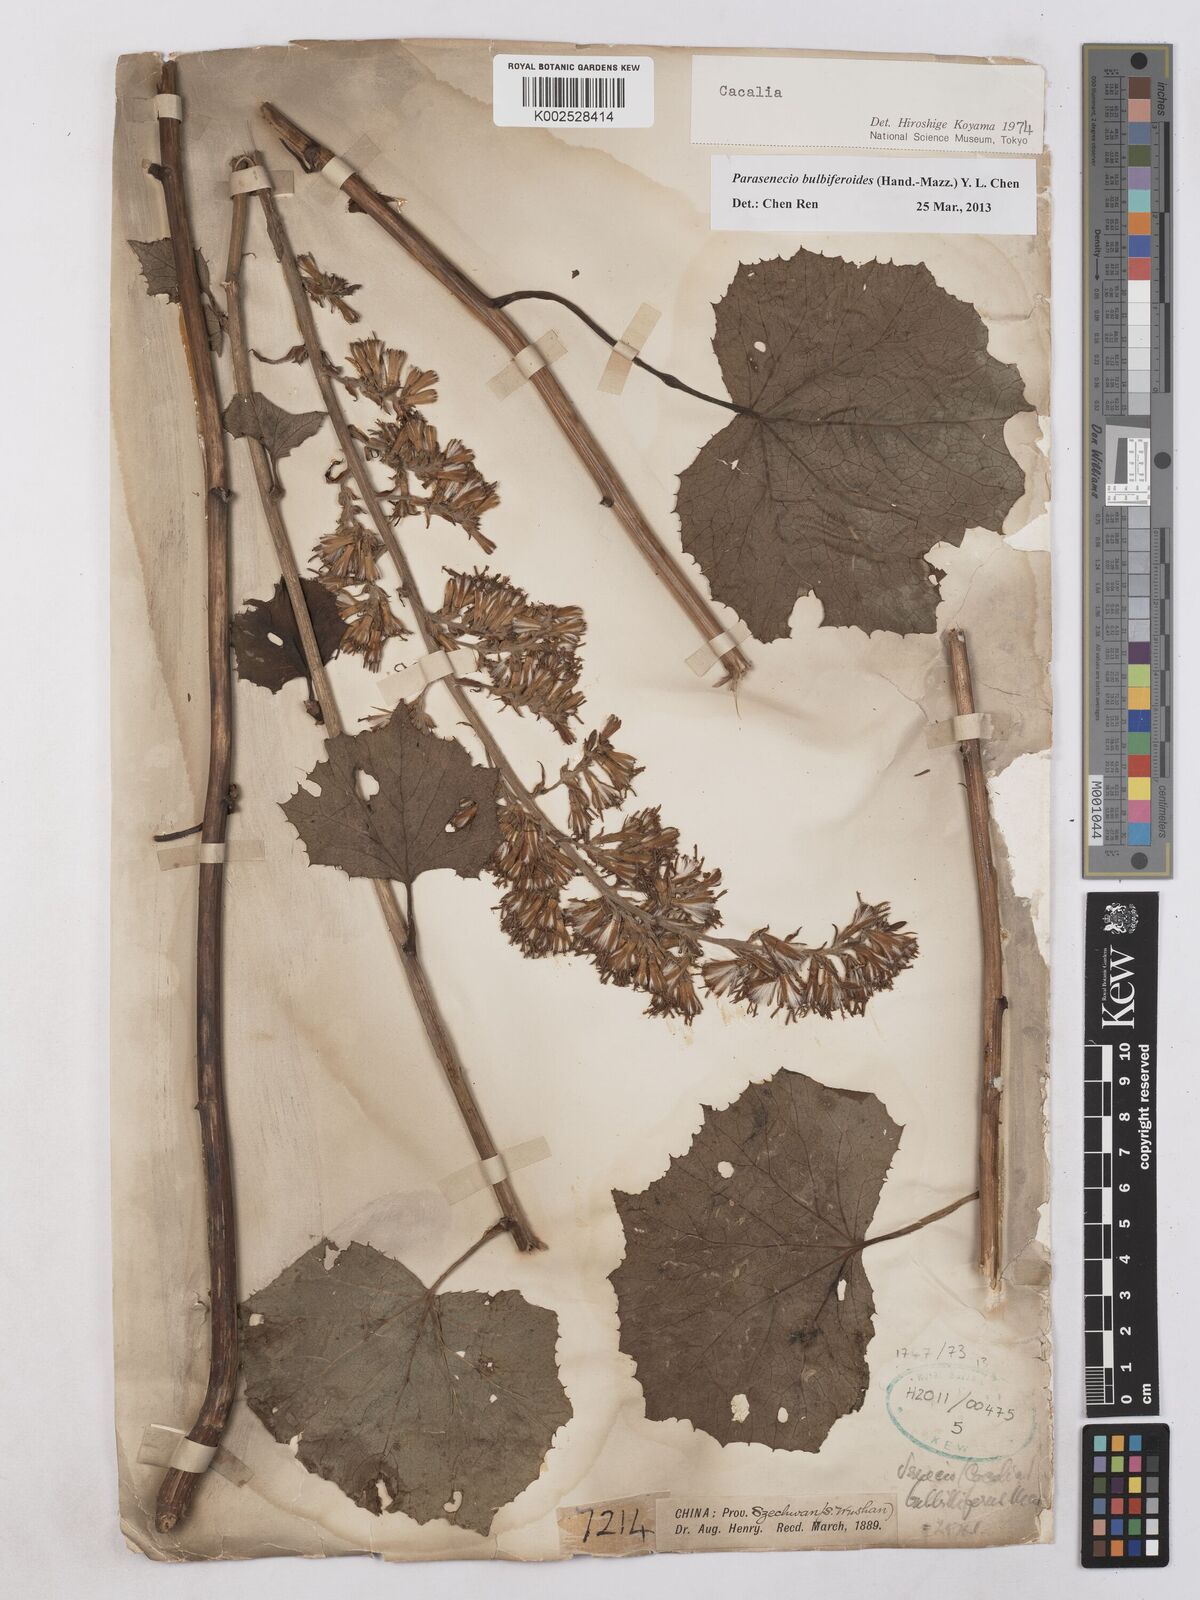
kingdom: Plantae
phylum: Tracheophyta
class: Magnoliopsida
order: Asterales
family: Asteraceae
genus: Parasenecio
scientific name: Parasenecio bulbiferoides
